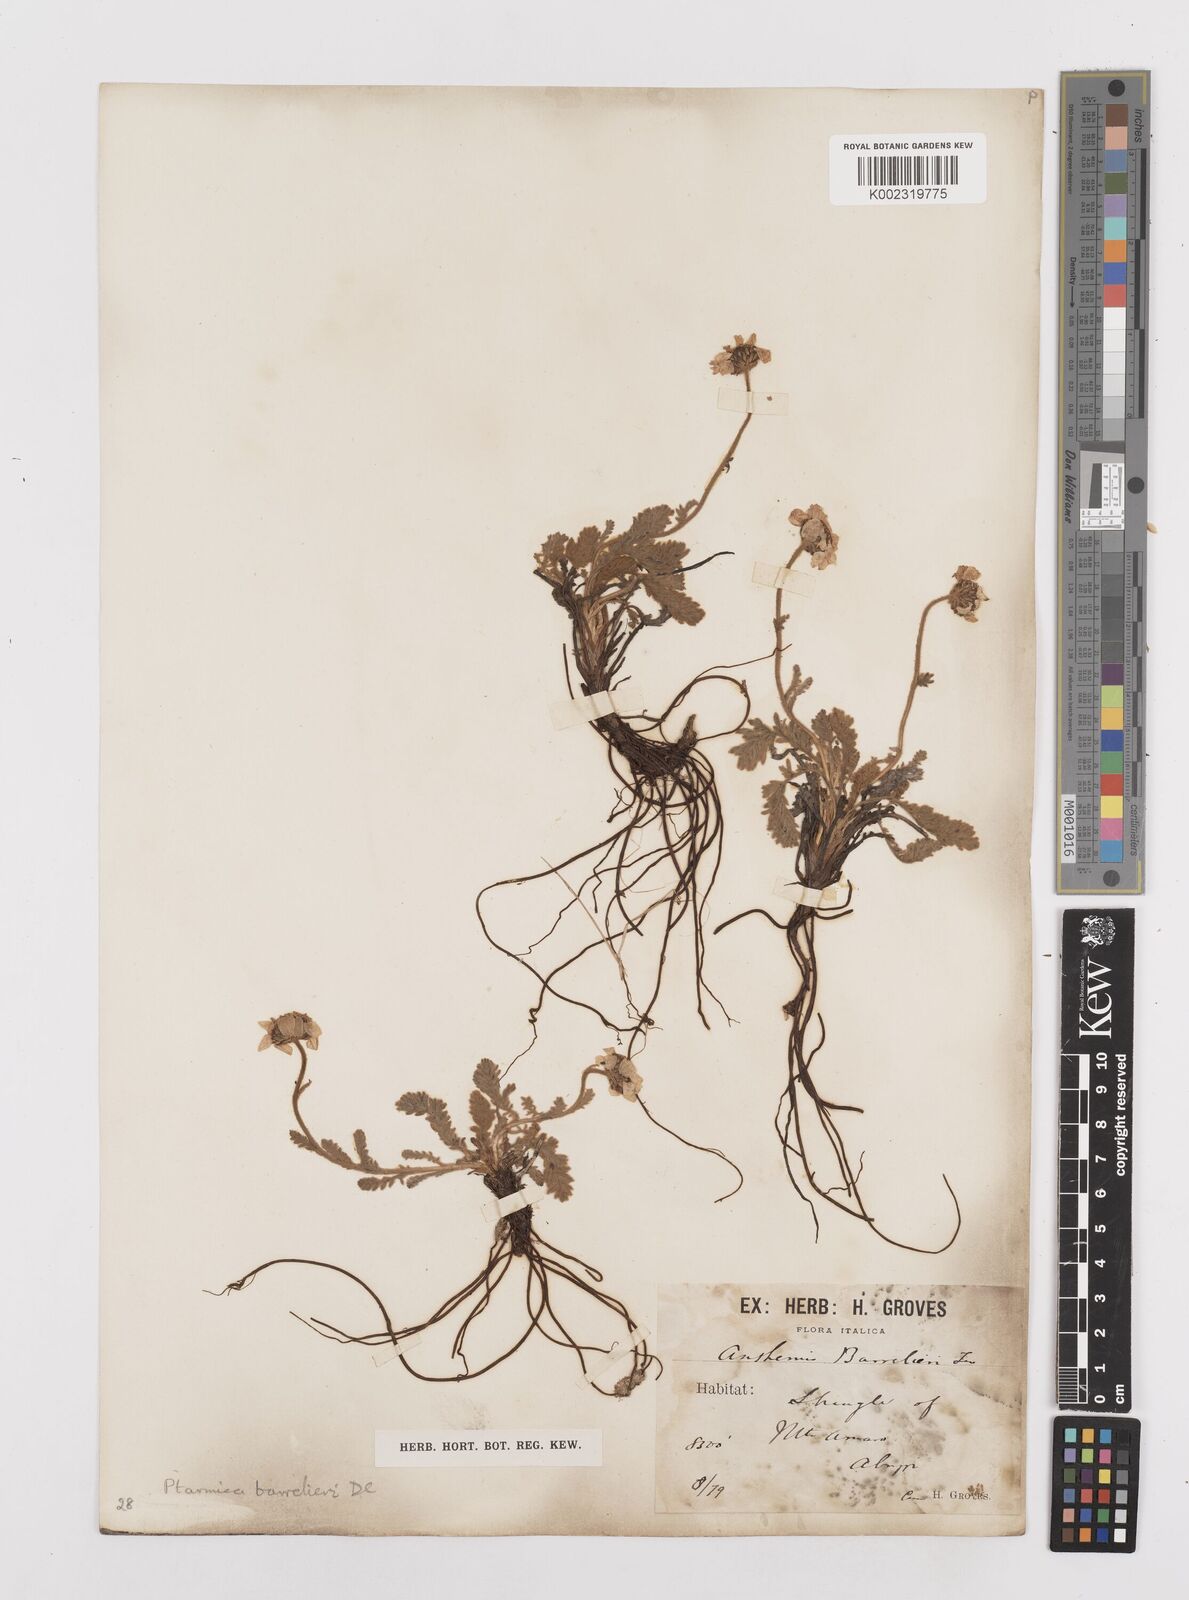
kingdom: Plantae
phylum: Tracheophyta
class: Magnoliopsida
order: Asterales
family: Asteraceae
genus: Achillea
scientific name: Achillea barrelieri
